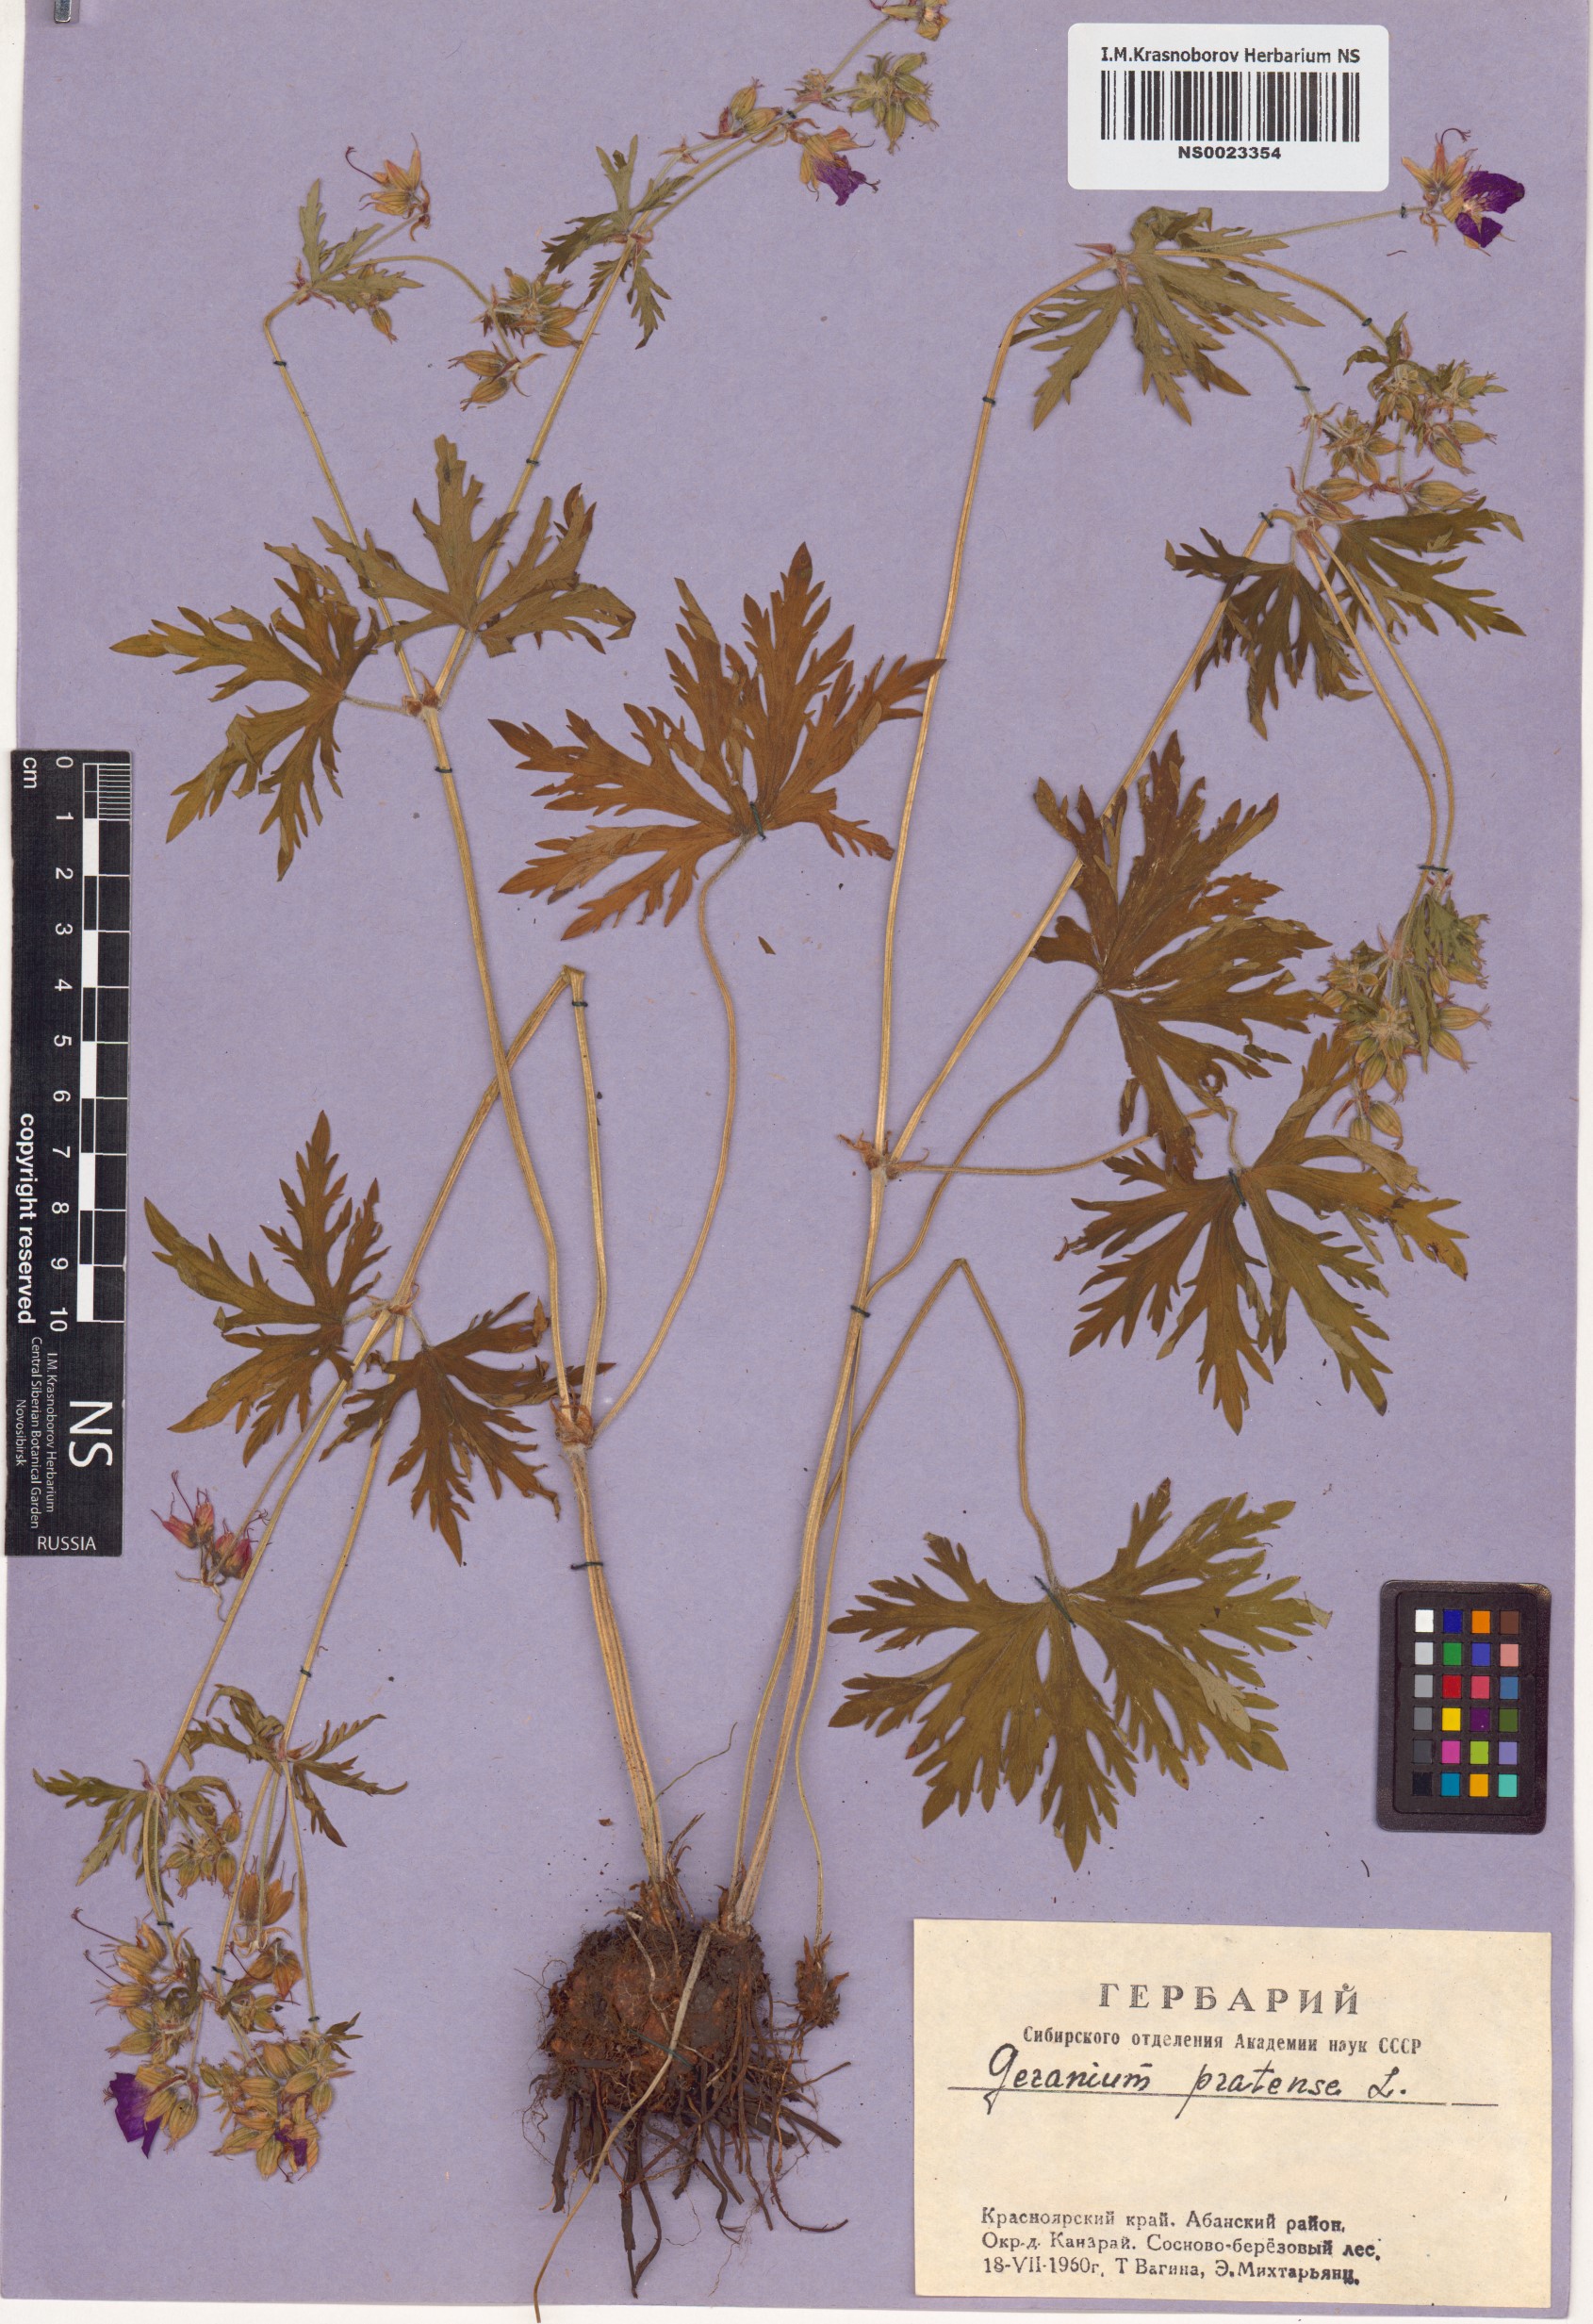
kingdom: Plantae
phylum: Tracheophyta
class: Magnoliopsida
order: Geraniales
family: Geraniaceae
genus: Geranium
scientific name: Geranium pratense
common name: Meadow crane's-bill
